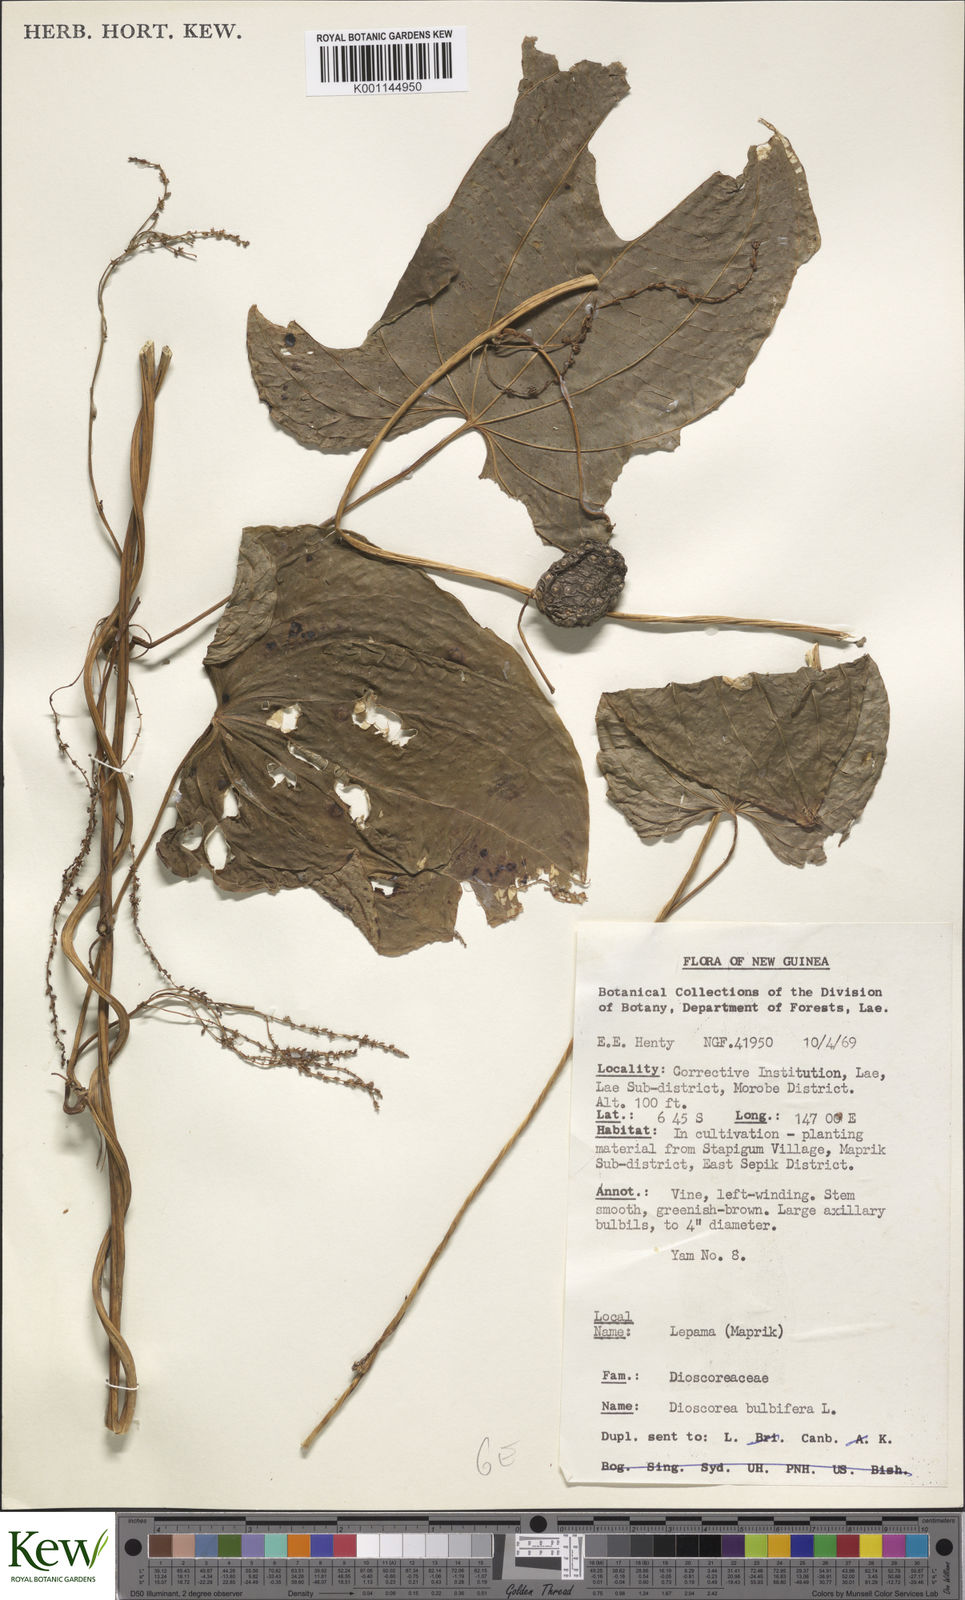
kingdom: Plantae
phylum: Tracheophyta
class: Liliopsida
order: Dioscoreales
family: Dioscoreaceae
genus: Dioscorea
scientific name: Dioscorea bulbifera
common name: Air yam
